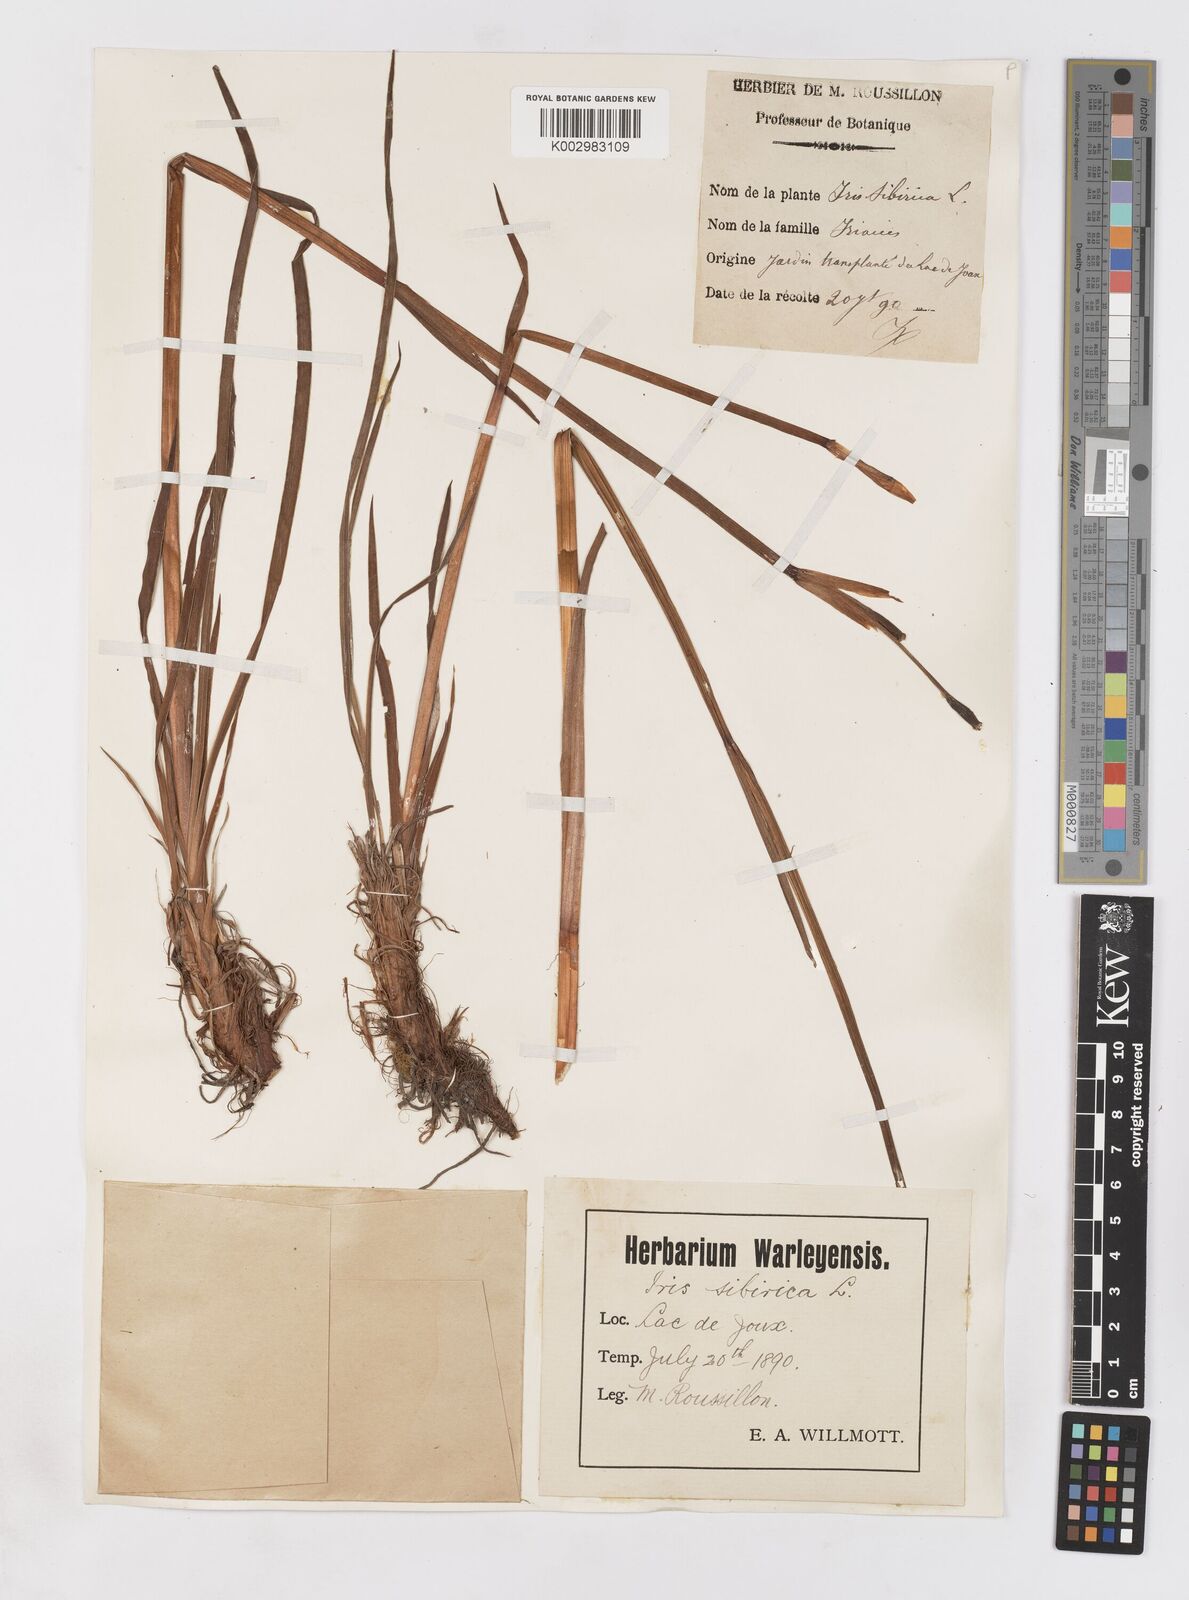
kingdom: Plantae
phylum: Tracheophyta
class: Liliopsida
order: Asparagales
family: Iridaceae
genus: Iris
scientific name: Iris sibirica
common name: Siberian iris
